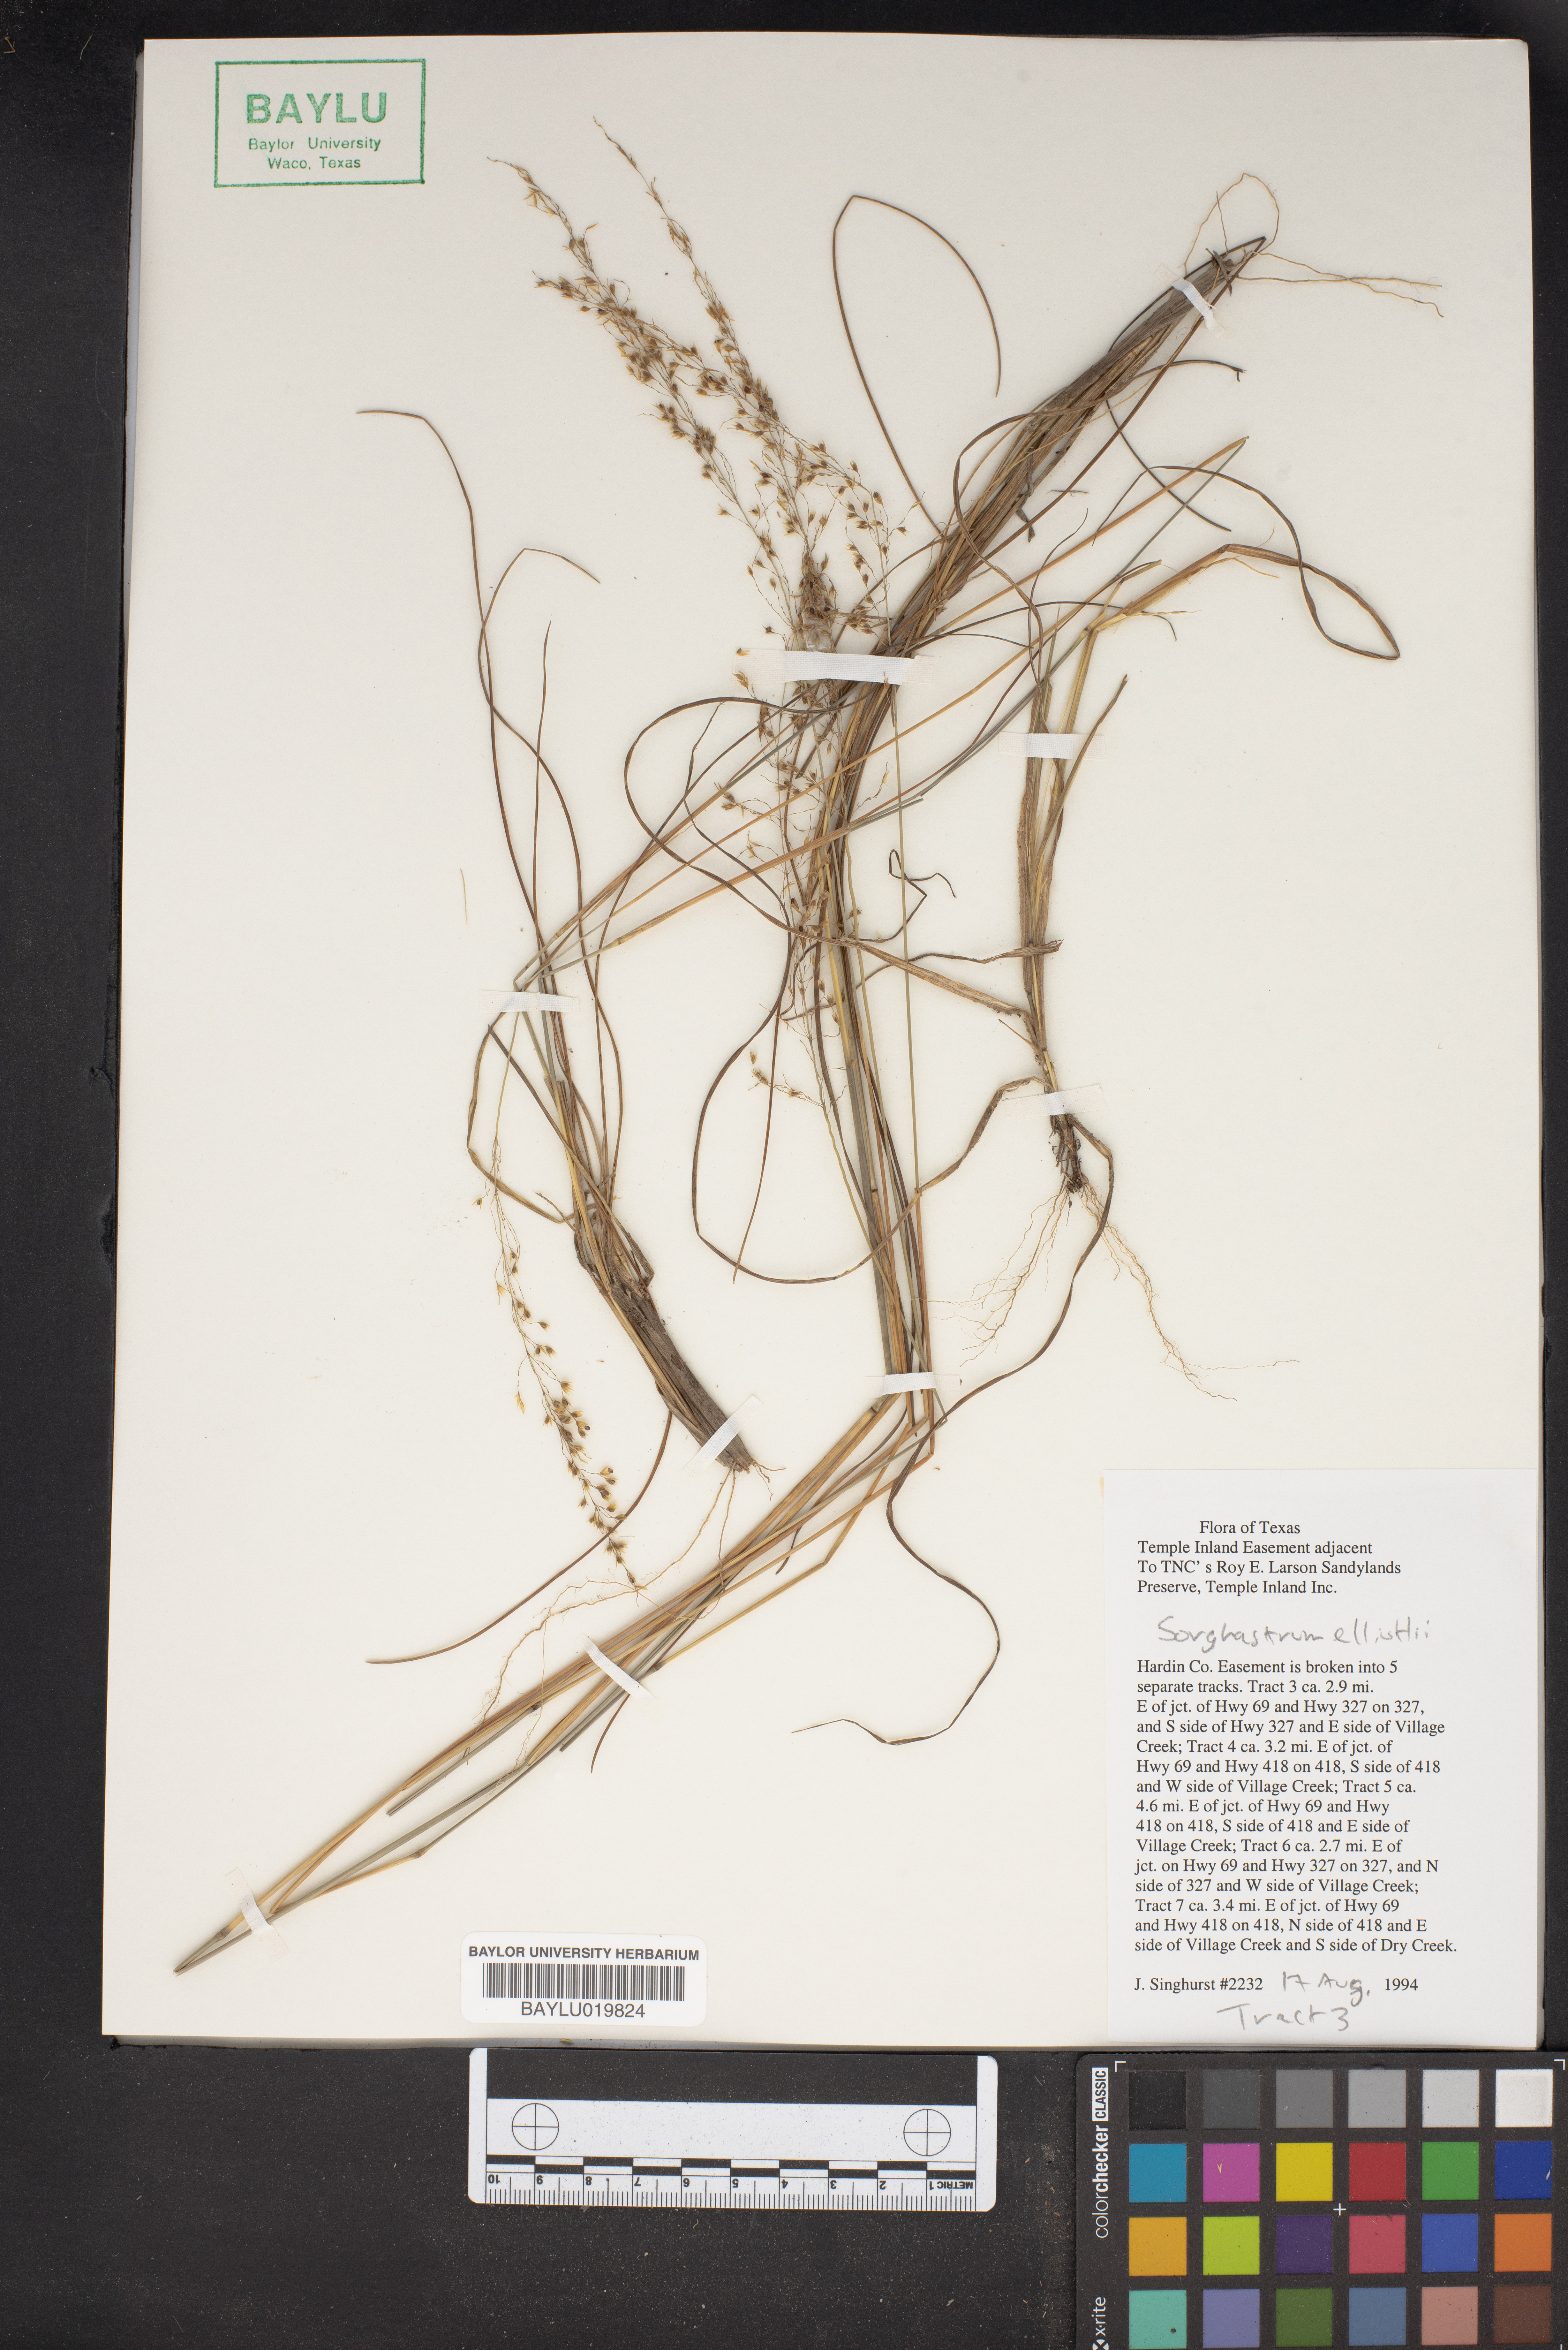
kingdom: Plantae
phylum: Tracheophyta
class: Liliopsida
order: Poales
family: Poaceae
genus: Sorghastrum
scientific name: Sorghastrum elliottii
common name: Slender indian grass
